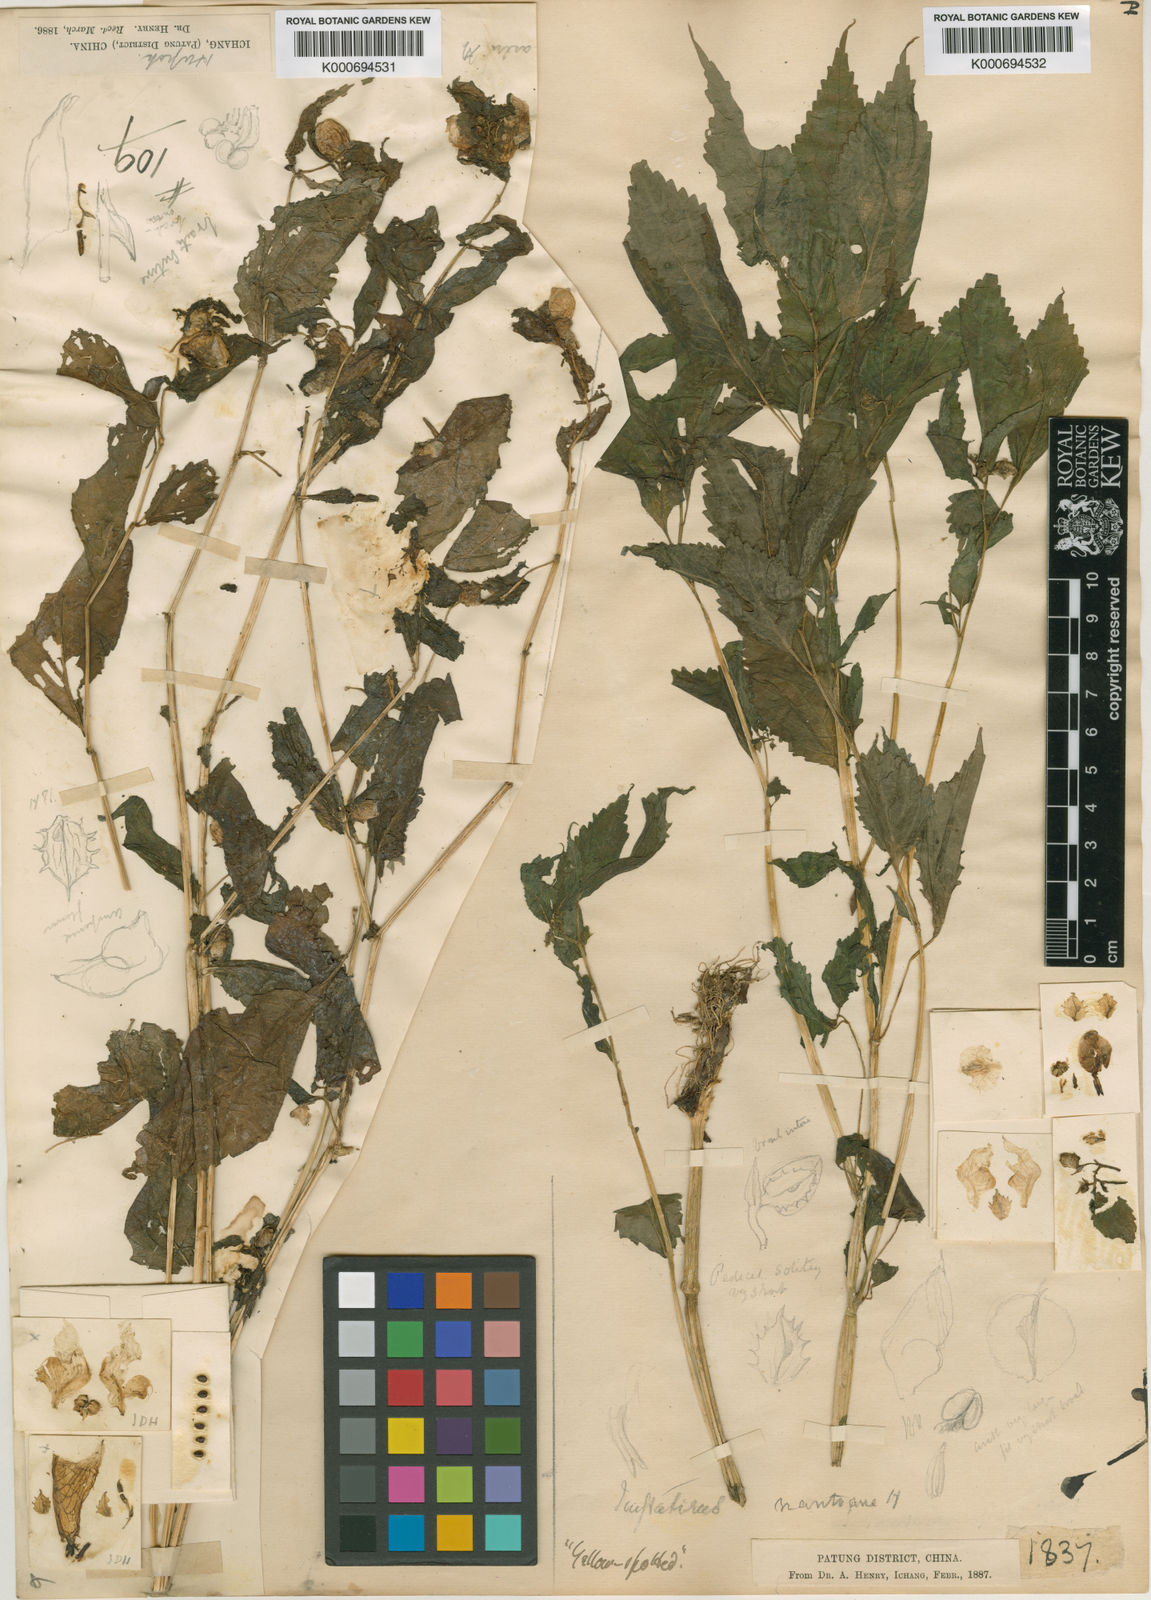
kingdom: Plantae
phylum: Tracheophyta
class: Magnoliopsida
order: Ericales
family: Balsaminaceae
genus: Impatiens
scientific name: Impatiens
